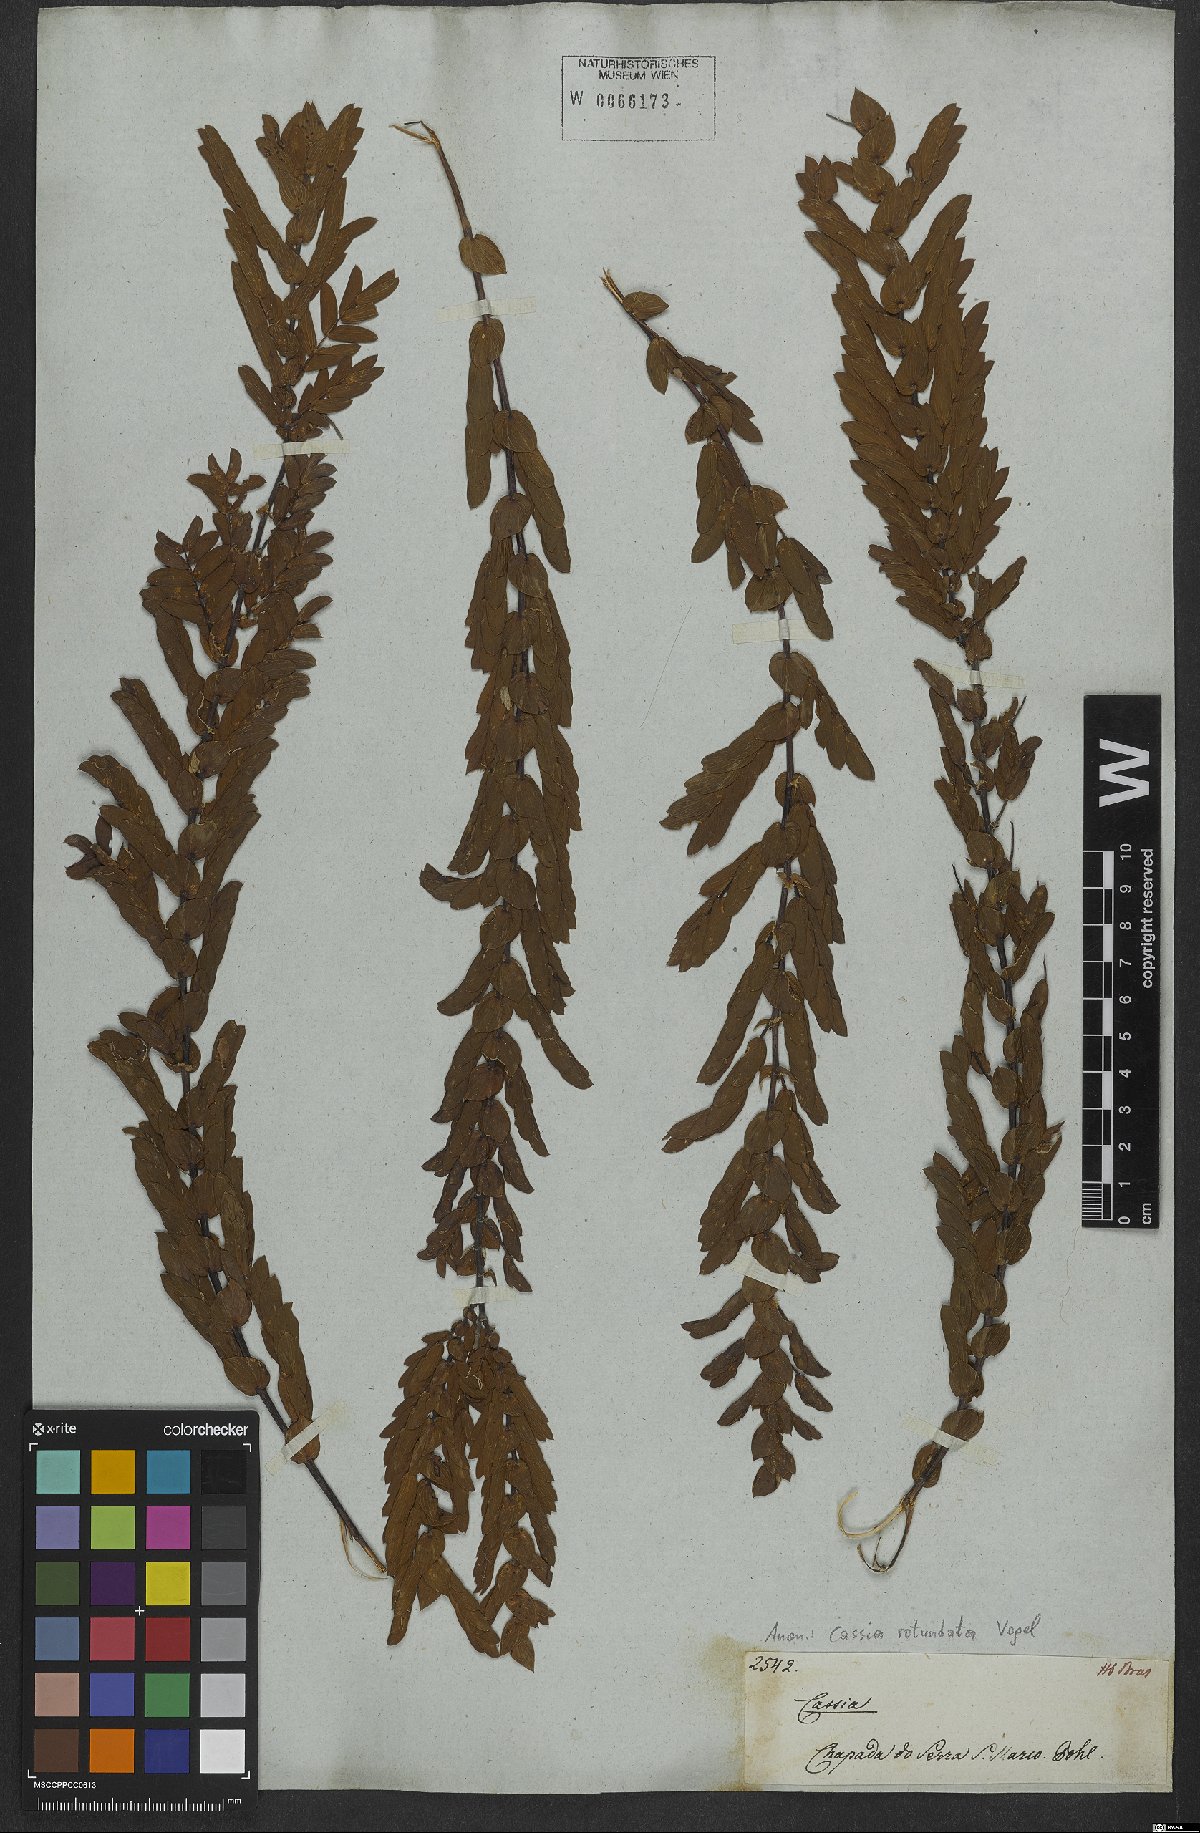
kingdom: Plantae
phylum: Tracheophyta
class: Magnoliopsida
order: Fabales
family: Fabaceae
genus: Chamaecrista
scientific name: Chamaecrista rotundata
